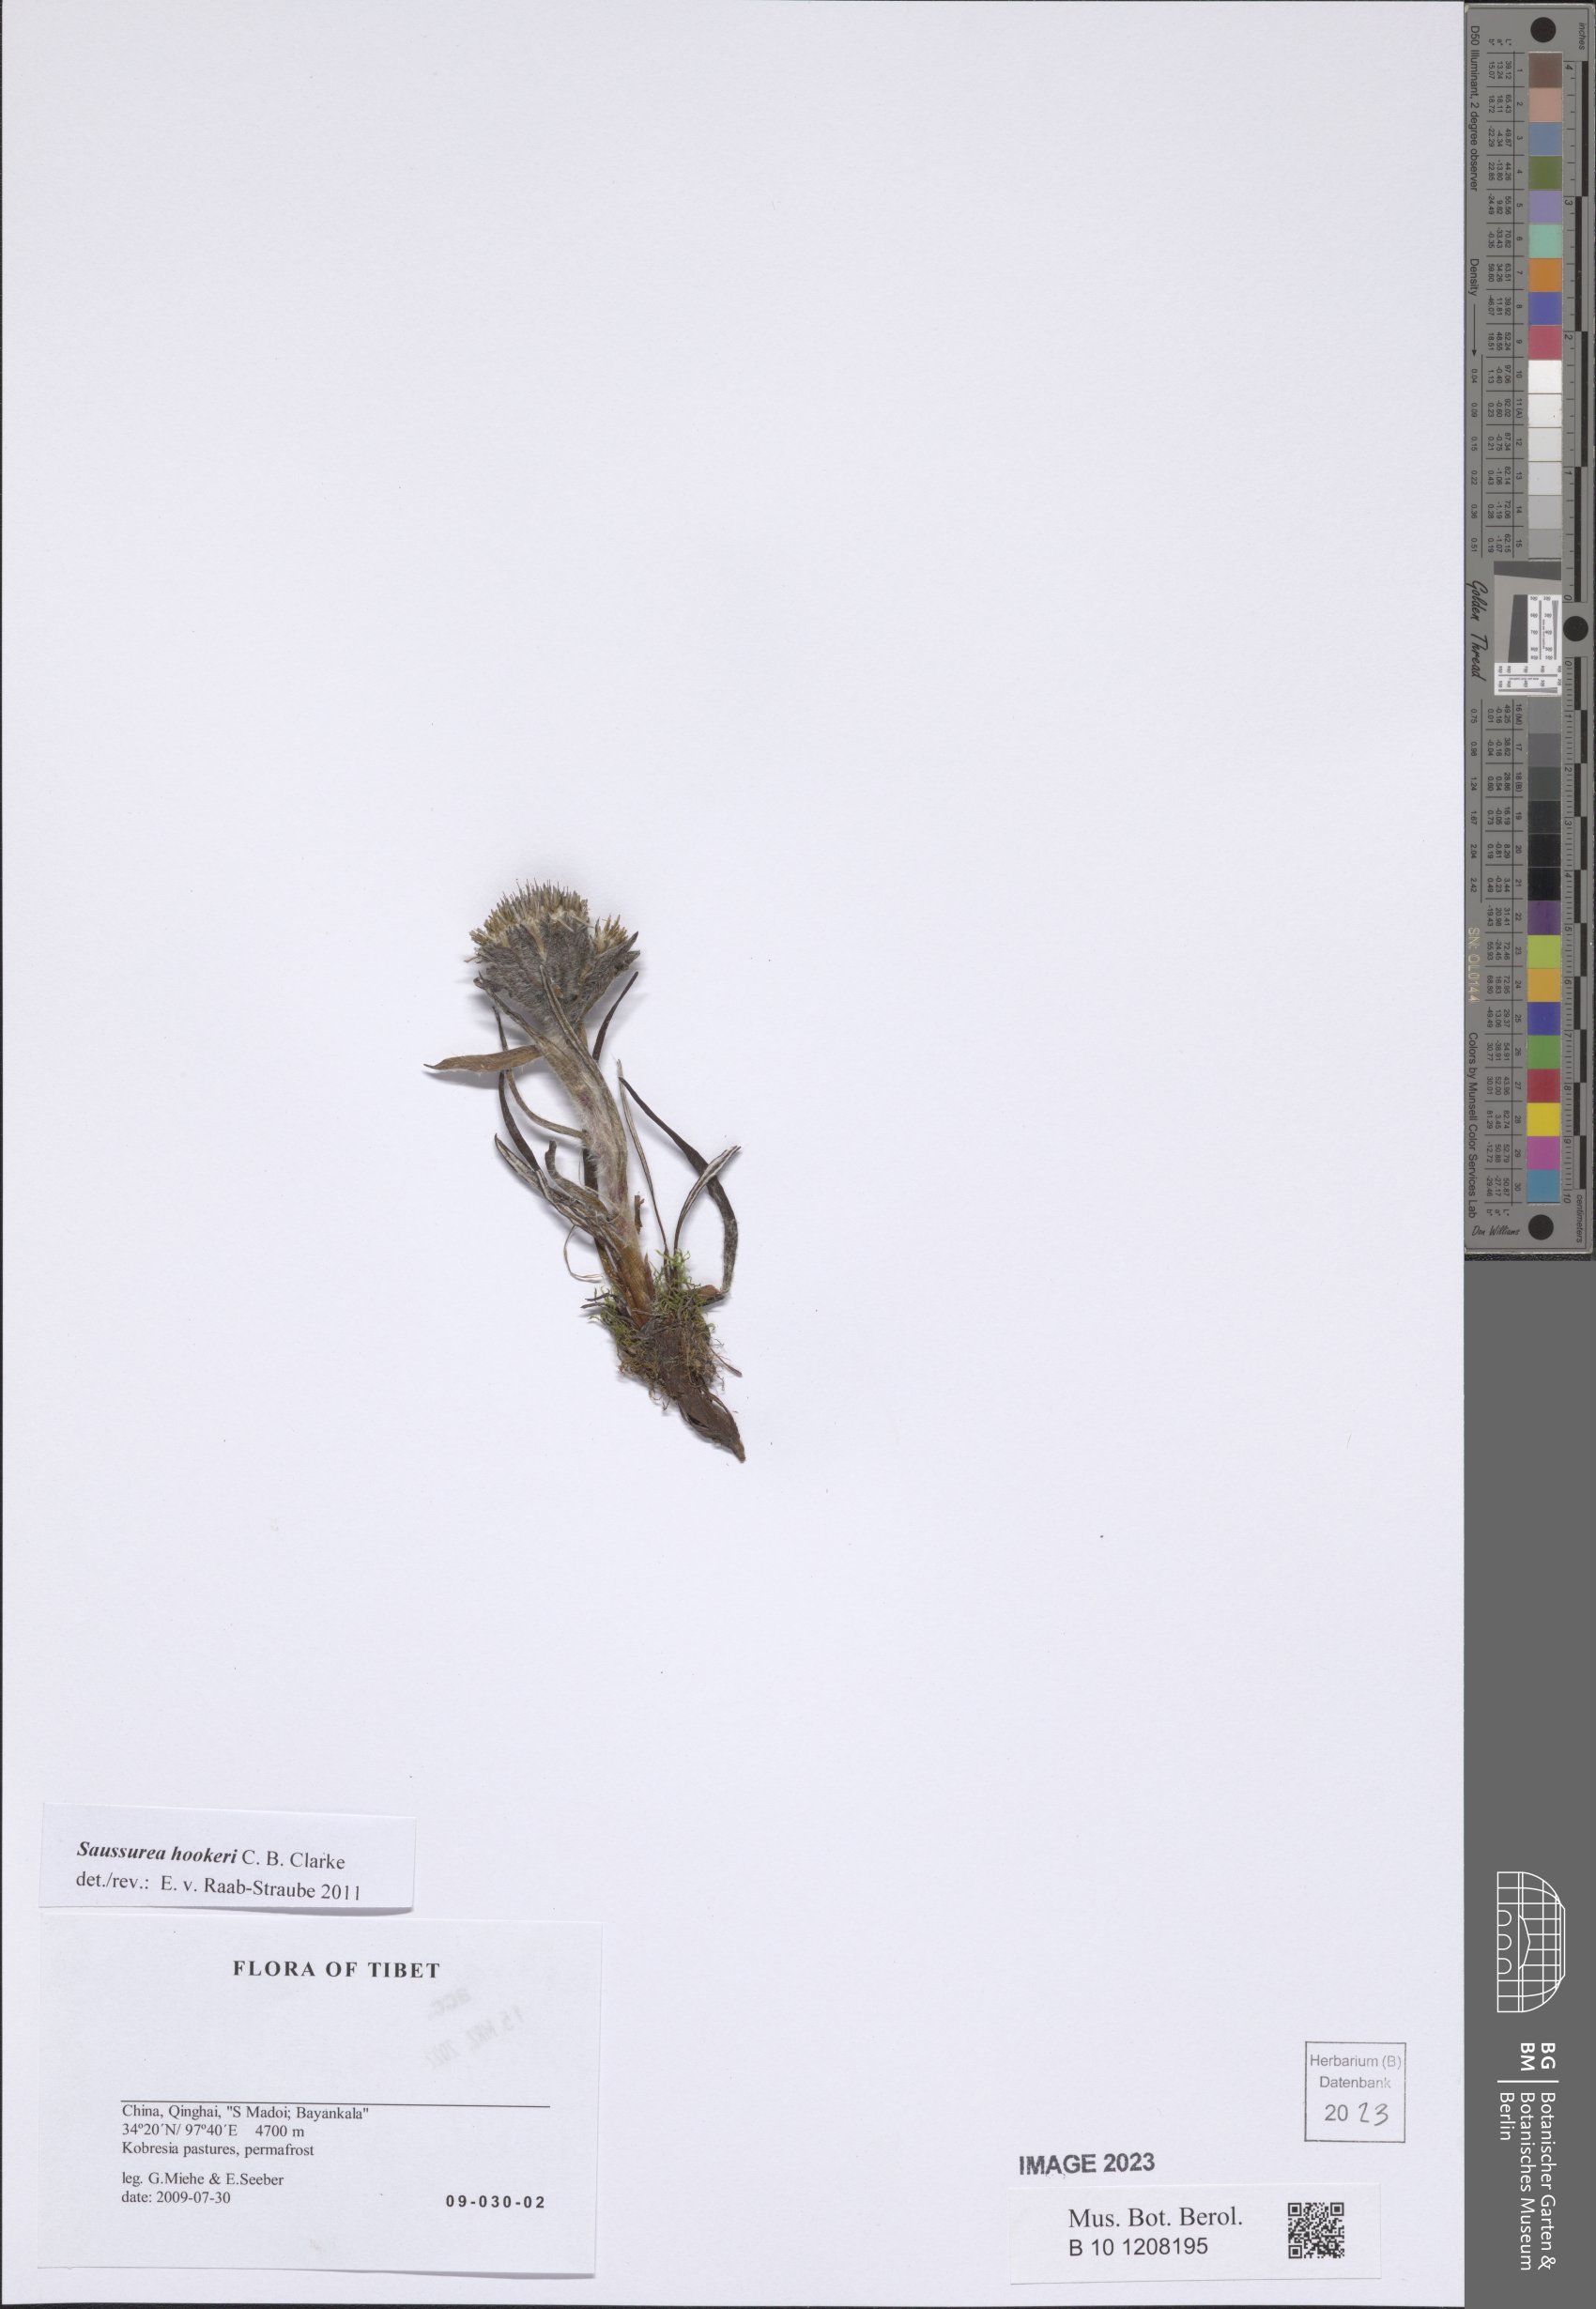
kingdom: Plantae
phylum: Tracheophyta
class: Magnoliopsida
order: Asterales
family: Asteraceae
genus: Saussurea
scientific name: Saussurea hookeri
